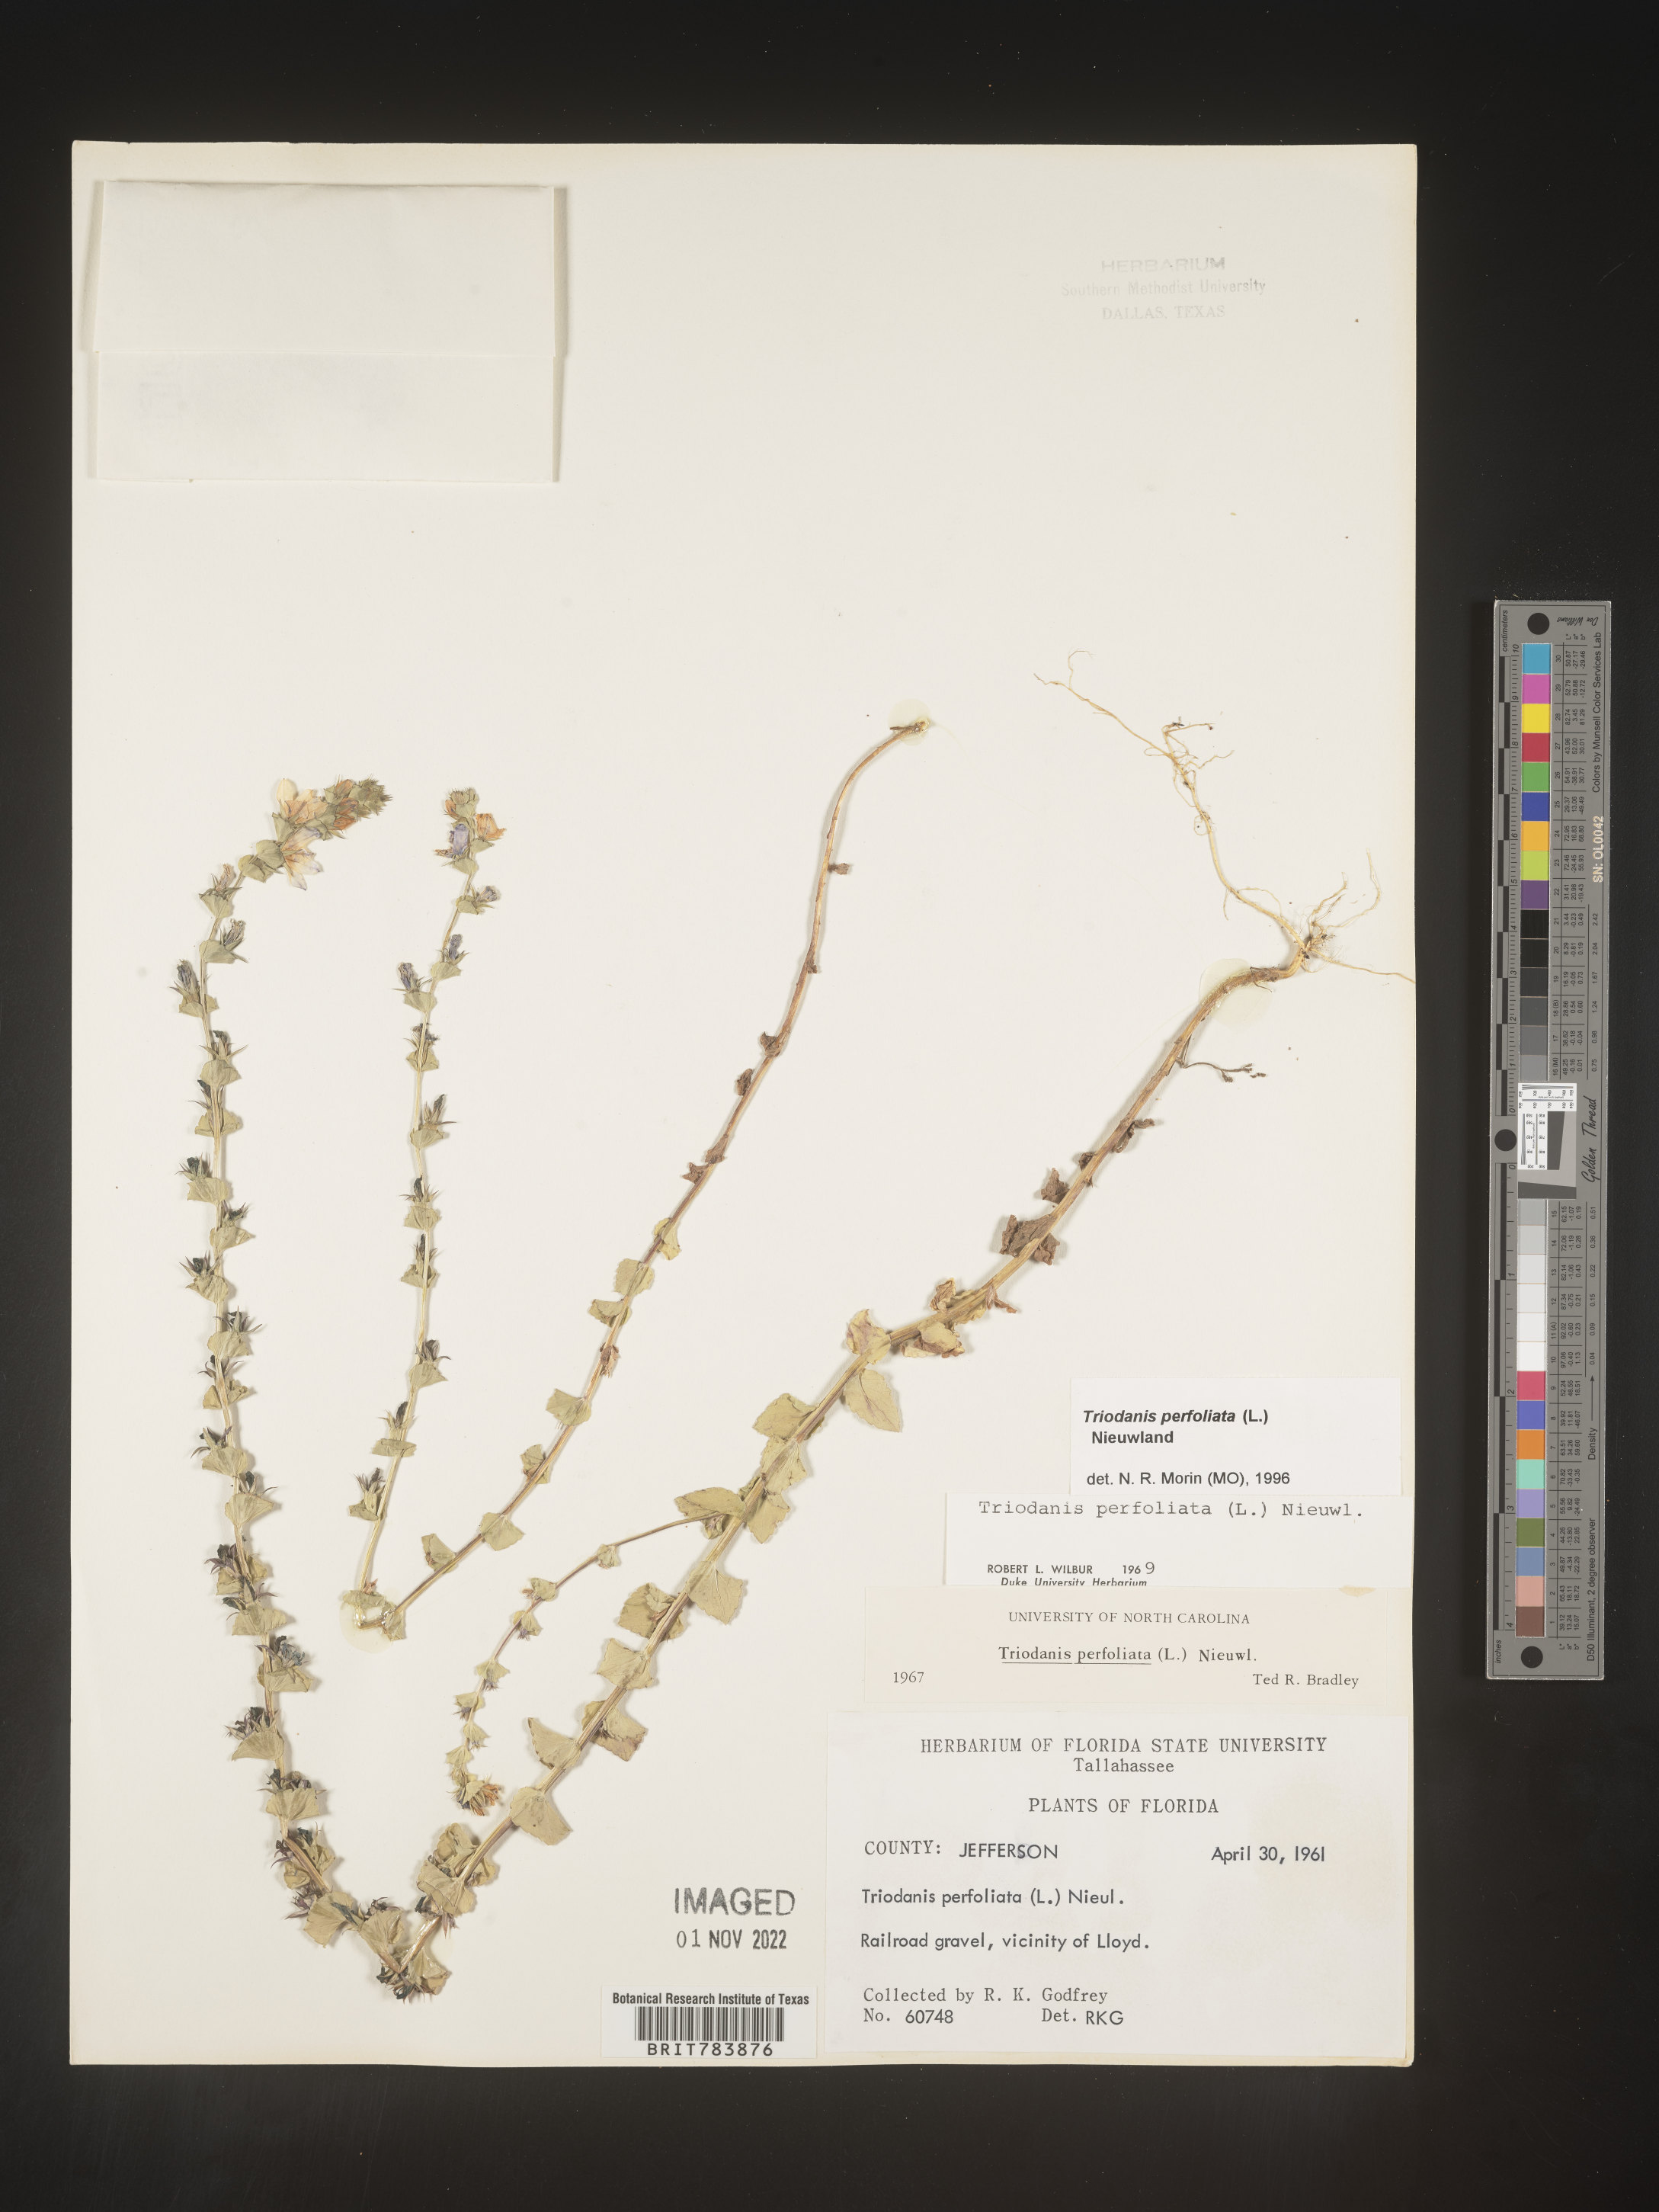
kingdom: Plantae
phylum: Tracheophyta
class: Magnoliopsida
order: Asterales
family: Campanulaceae
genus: Triodanis
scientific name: Triodanis perfoliata
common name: Clasping venus' looking-glass
